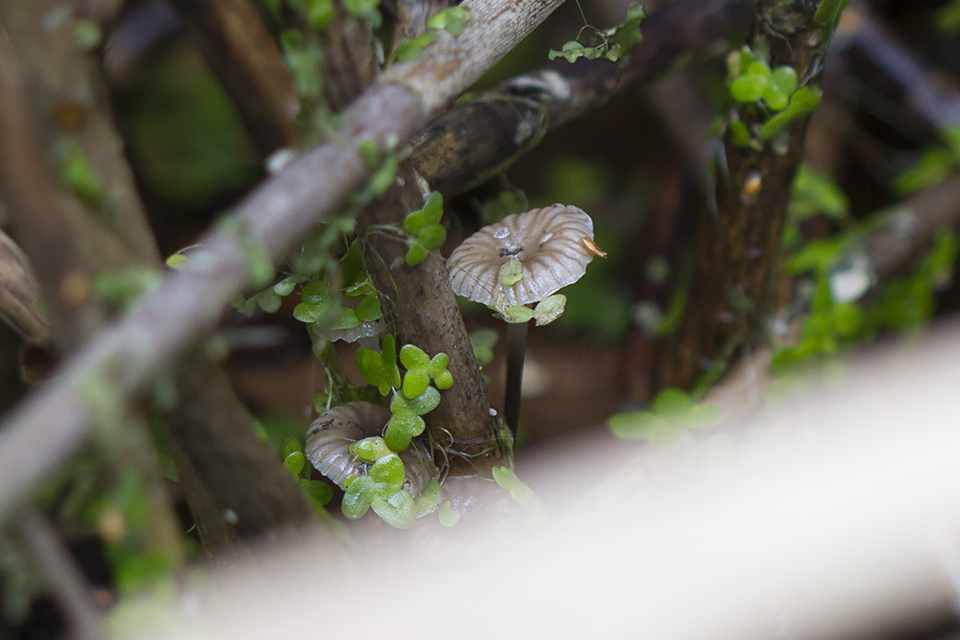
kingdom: Fungi
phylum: Basidiomycota
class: Agaricomycetes
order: Agaricales
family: Mycenaceae
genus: Mycena
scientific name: Mycena belliae
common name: tagrørs-huesvamp
